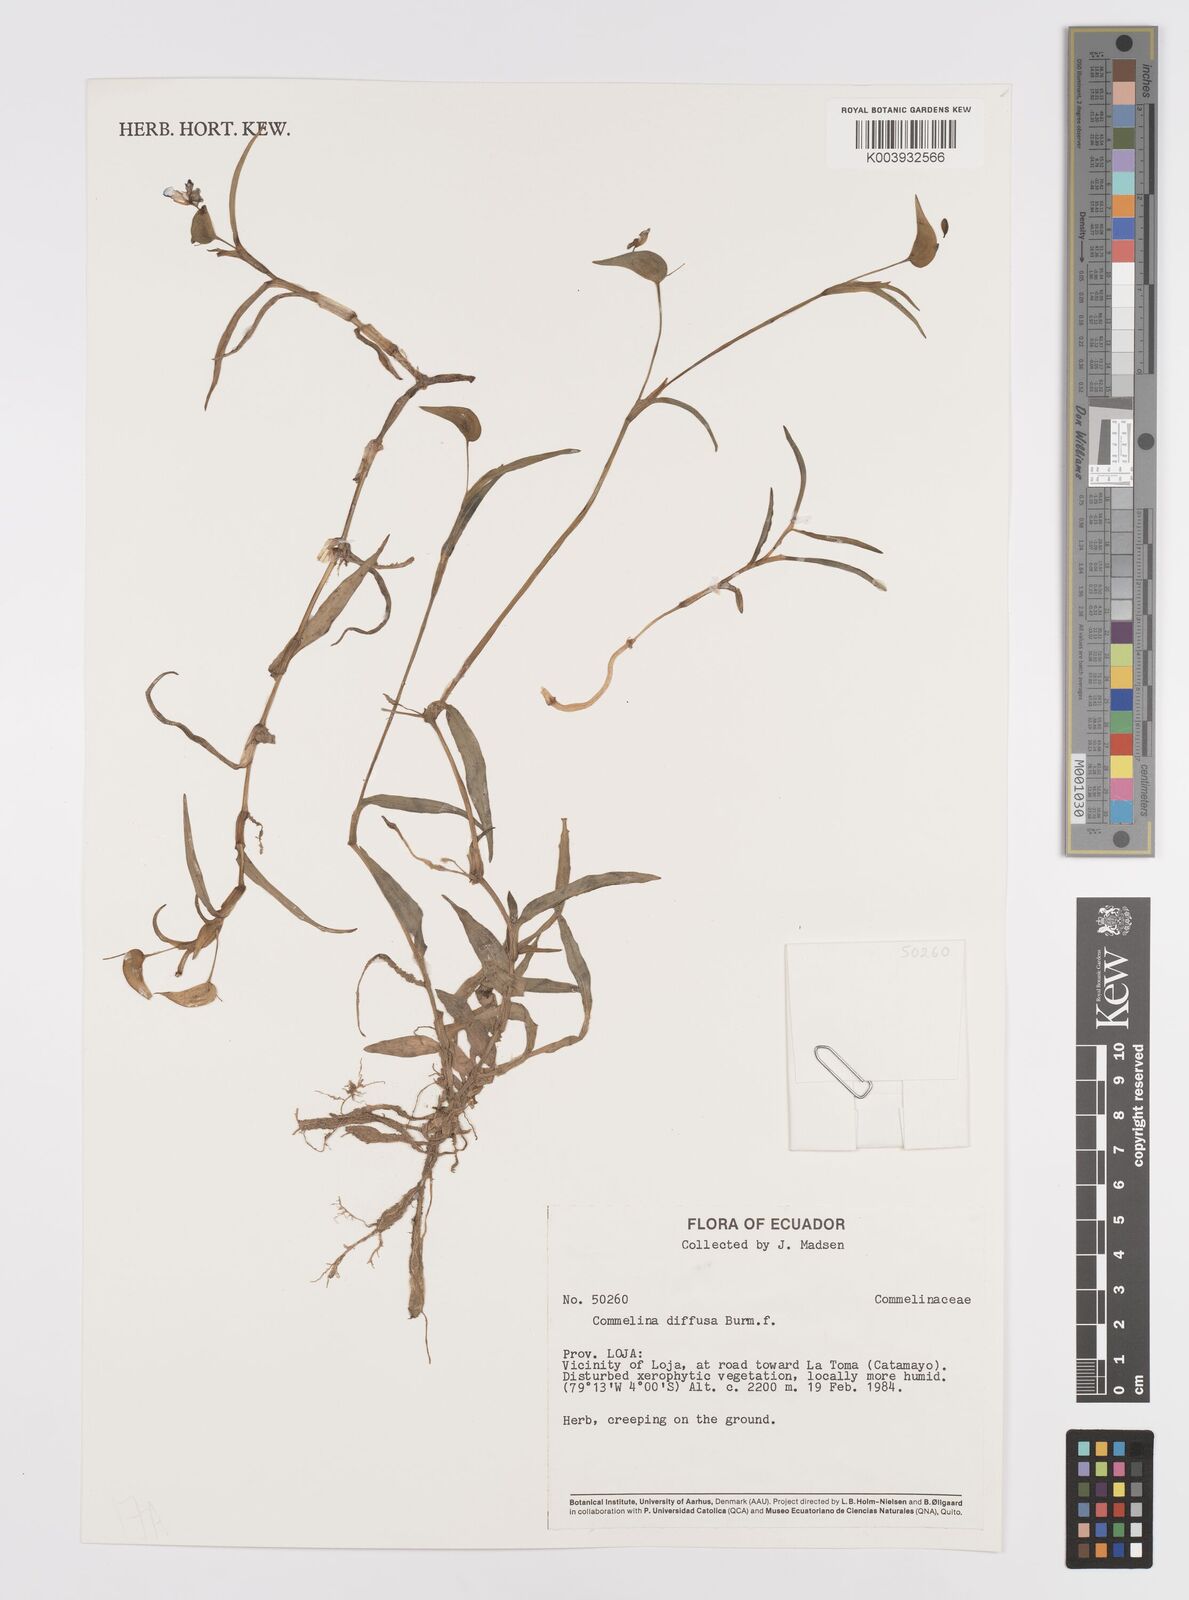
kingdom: Plantae
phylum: Tracheophyta
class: Liliopsida
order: Commelinales
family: Commelinaceae
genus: Commelina
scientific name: Commelina diffusa
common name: Climbing dayflower
